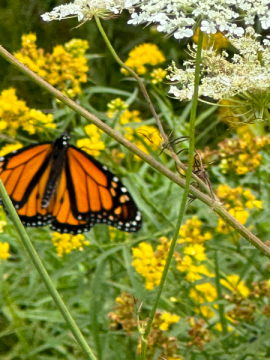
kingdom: Animalia
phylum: Arthropoda
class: Insecta
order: Lepidoptera
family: Nymphalidae
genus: Danaus
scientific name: Danaus plexippus
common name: Monarch
